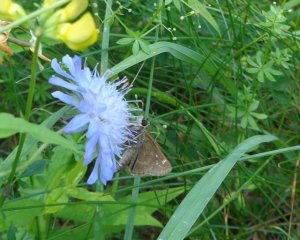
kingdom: Animalia
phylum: Arthropoda
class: Insecta
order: Lepidoptera
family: Hesperiidae
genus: Vernia
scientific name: Vernia verna
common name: Little Glassywing
